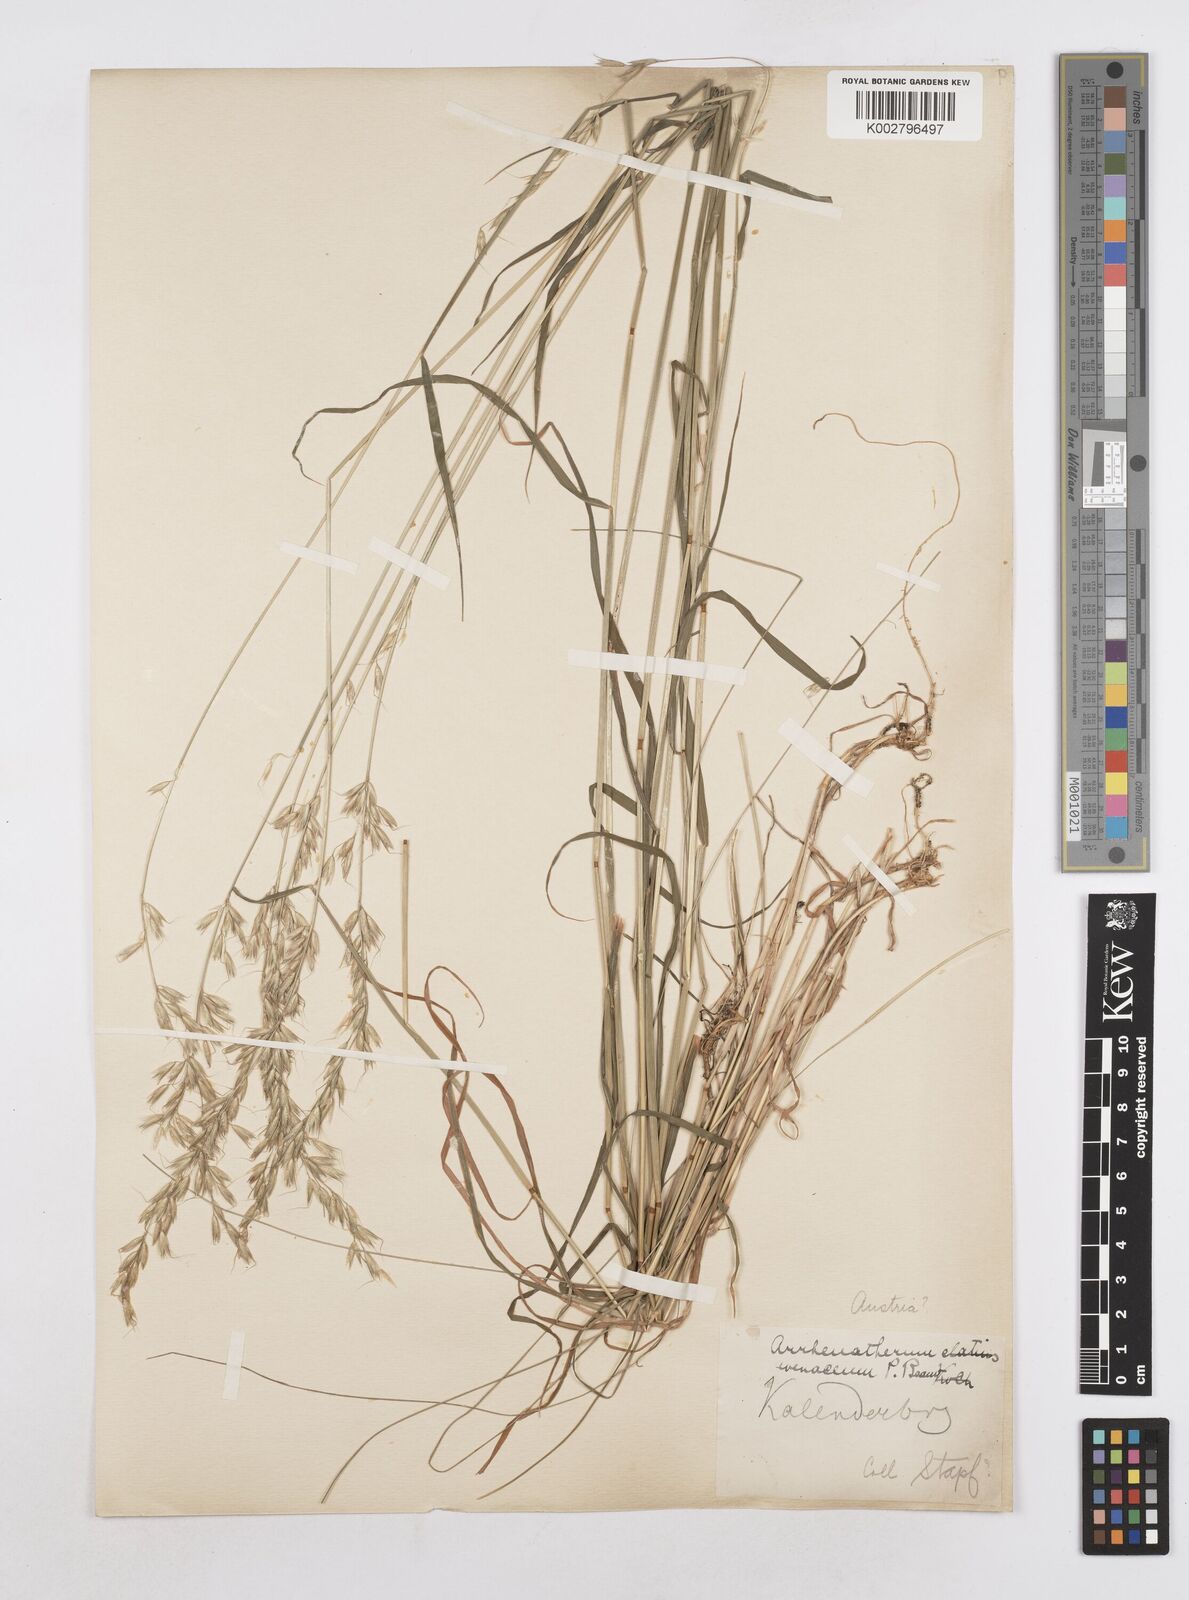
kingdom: Plantae
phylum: Tracheophyta
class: Liliopsida
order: Poales
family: Poaceae
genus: Arrhenatherum
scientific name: Arrhenatherum elatius
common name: Tall oatgrass
